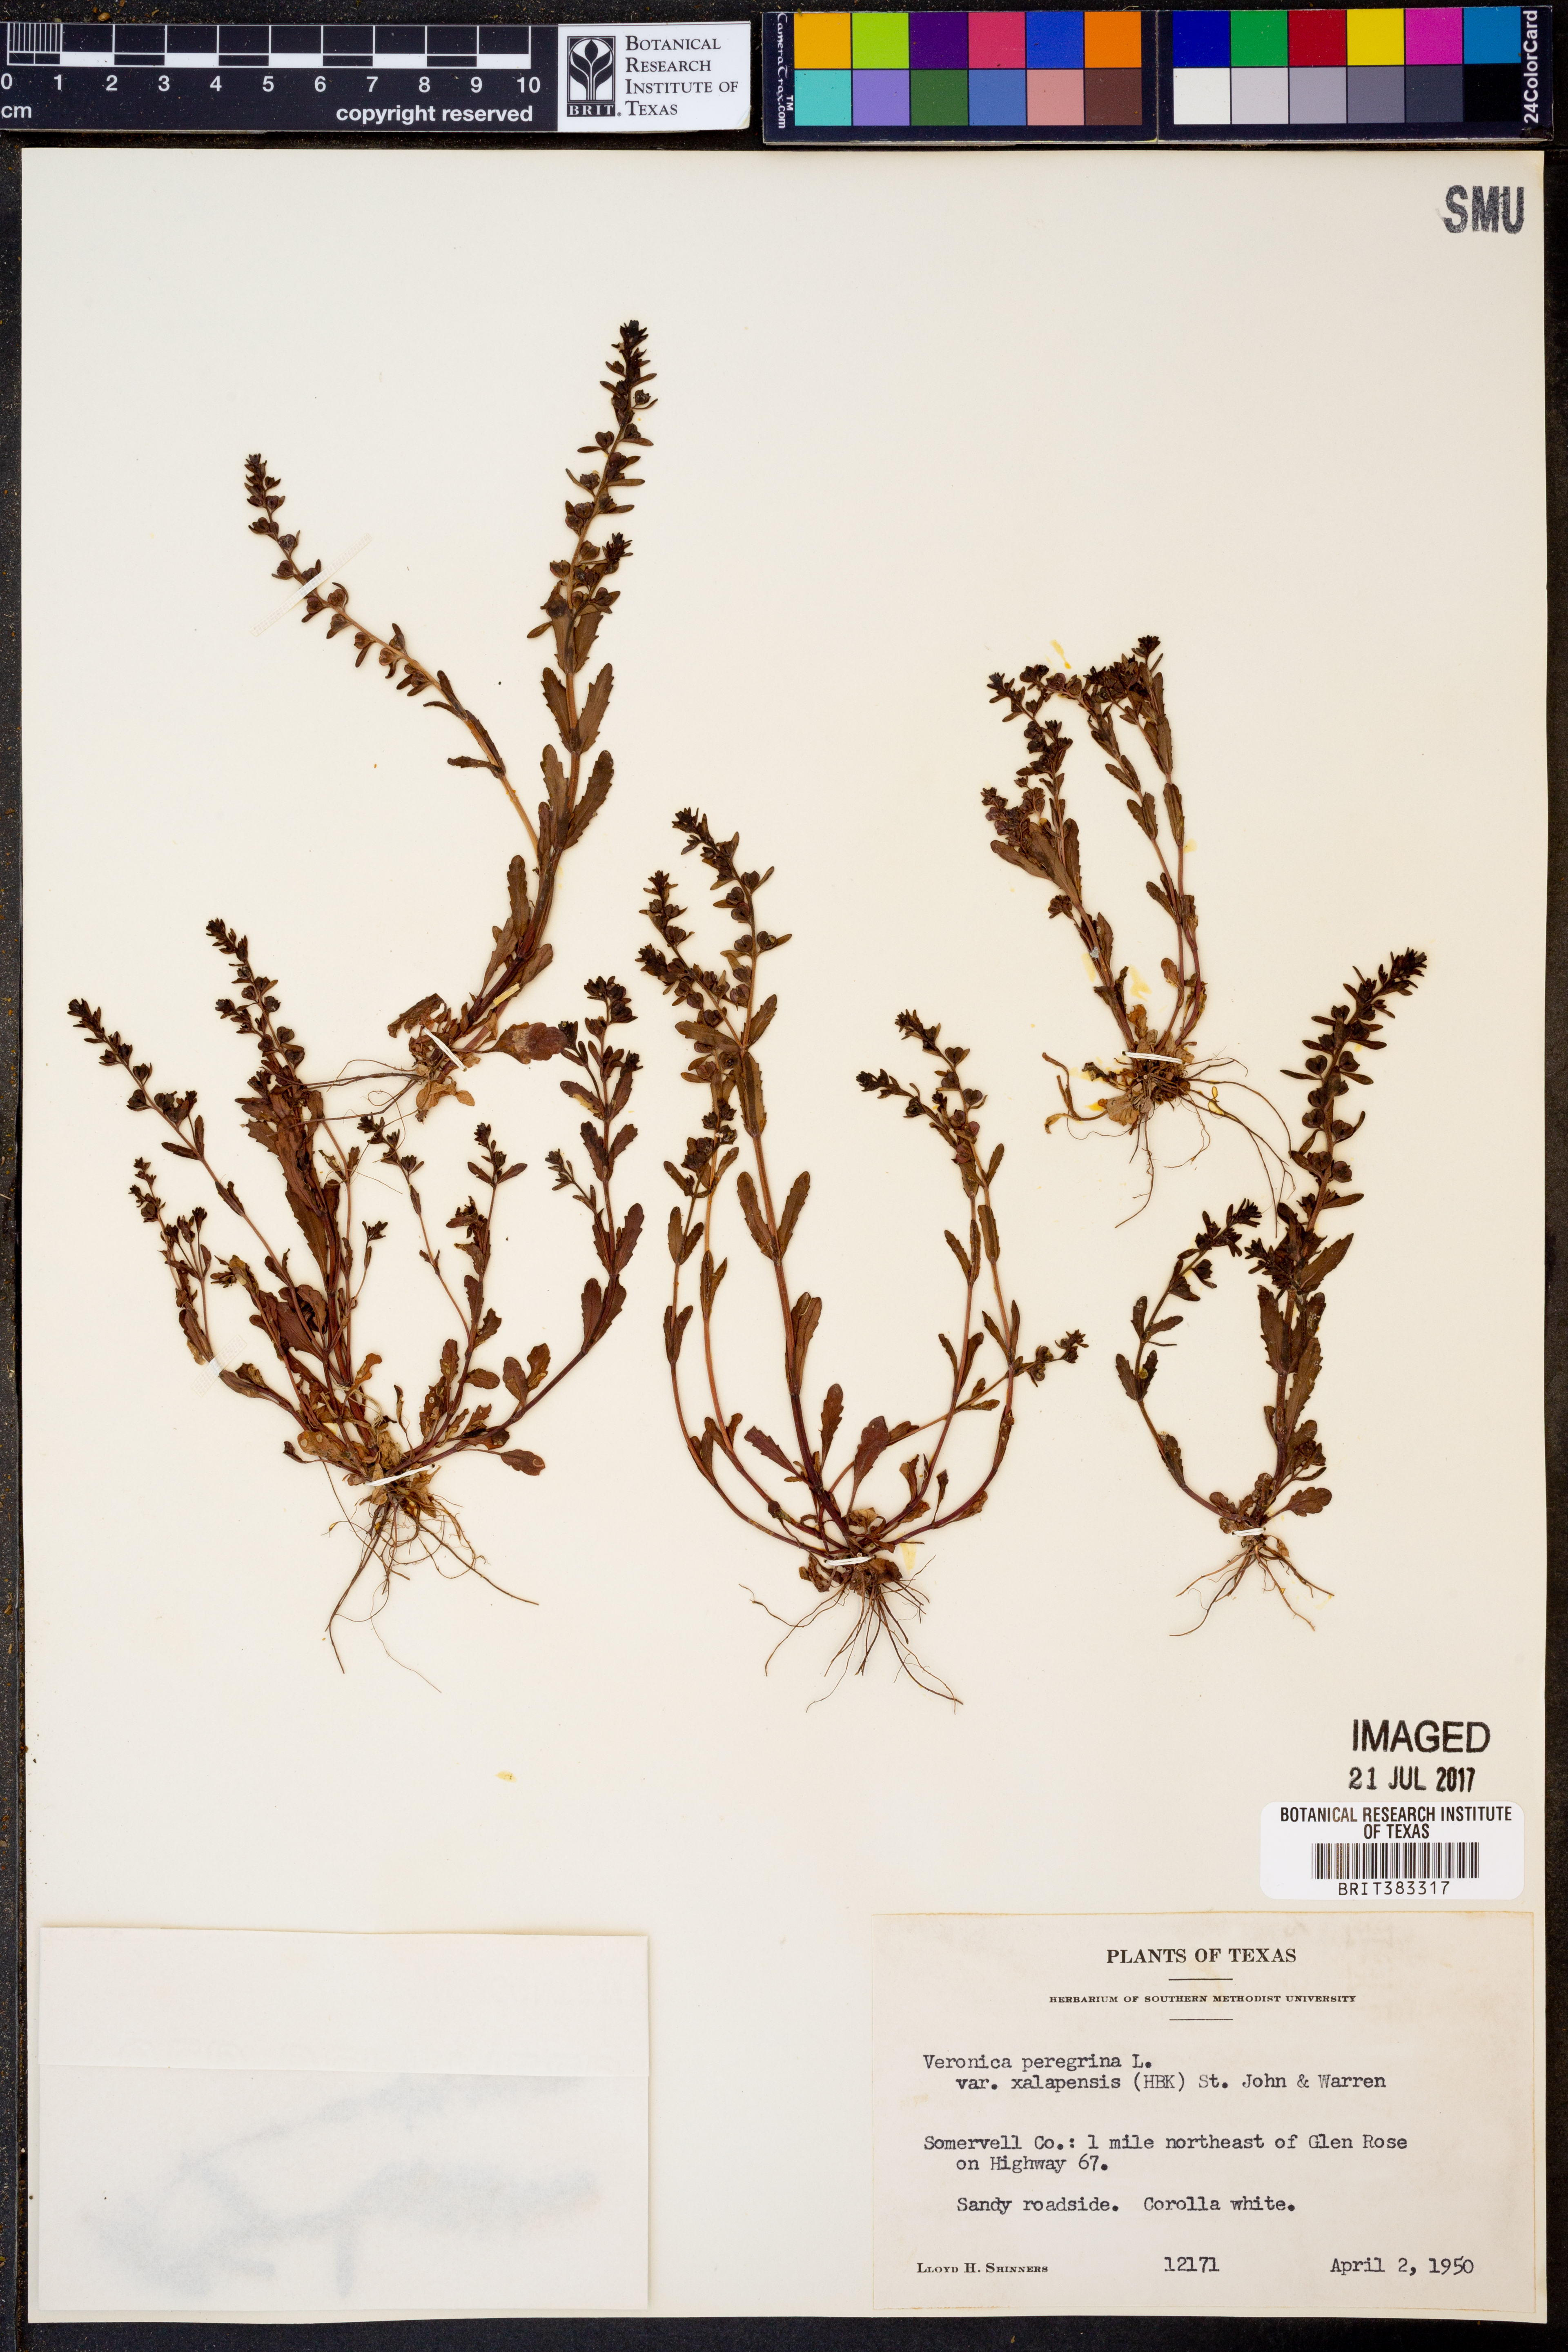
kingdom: Plantae
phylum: Tracheophyta
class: Magnoliopsida
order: Lamiales
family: Plantaginaceae
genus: Veronica
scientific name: Veronica peregrina
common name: Neckweed
